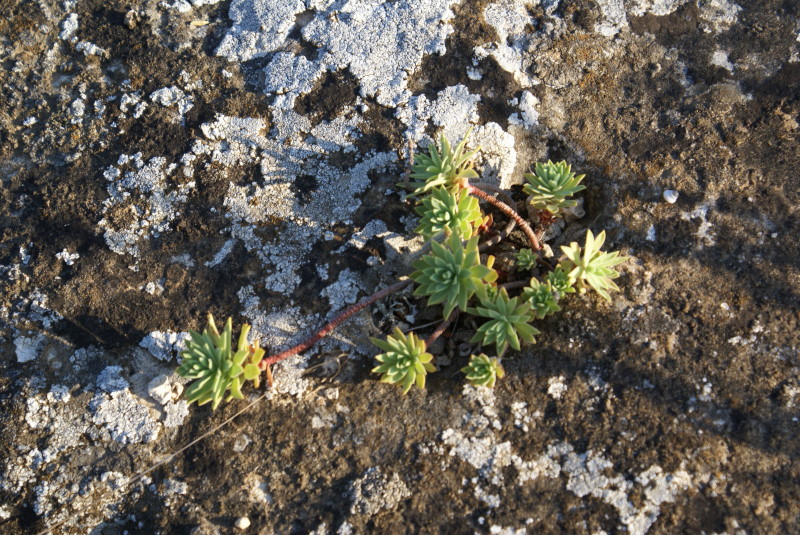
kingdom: Plantae
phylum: Tracheophyta
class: Magnoliopsida
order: Malpighiales
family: Euphorbiaceae
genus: Euphorbia
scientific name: Euphorbia petrophila
